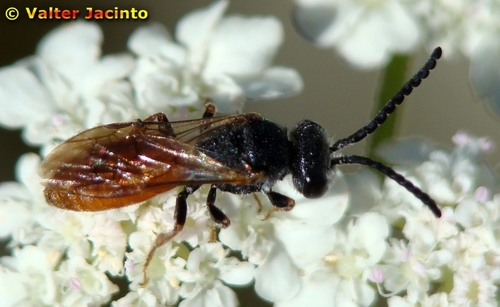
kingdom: Animalia
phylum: Arthropoda
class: Insecta
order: Hymenoptera
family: Halictidae
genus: Sphecodes
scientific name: Sphecodes
